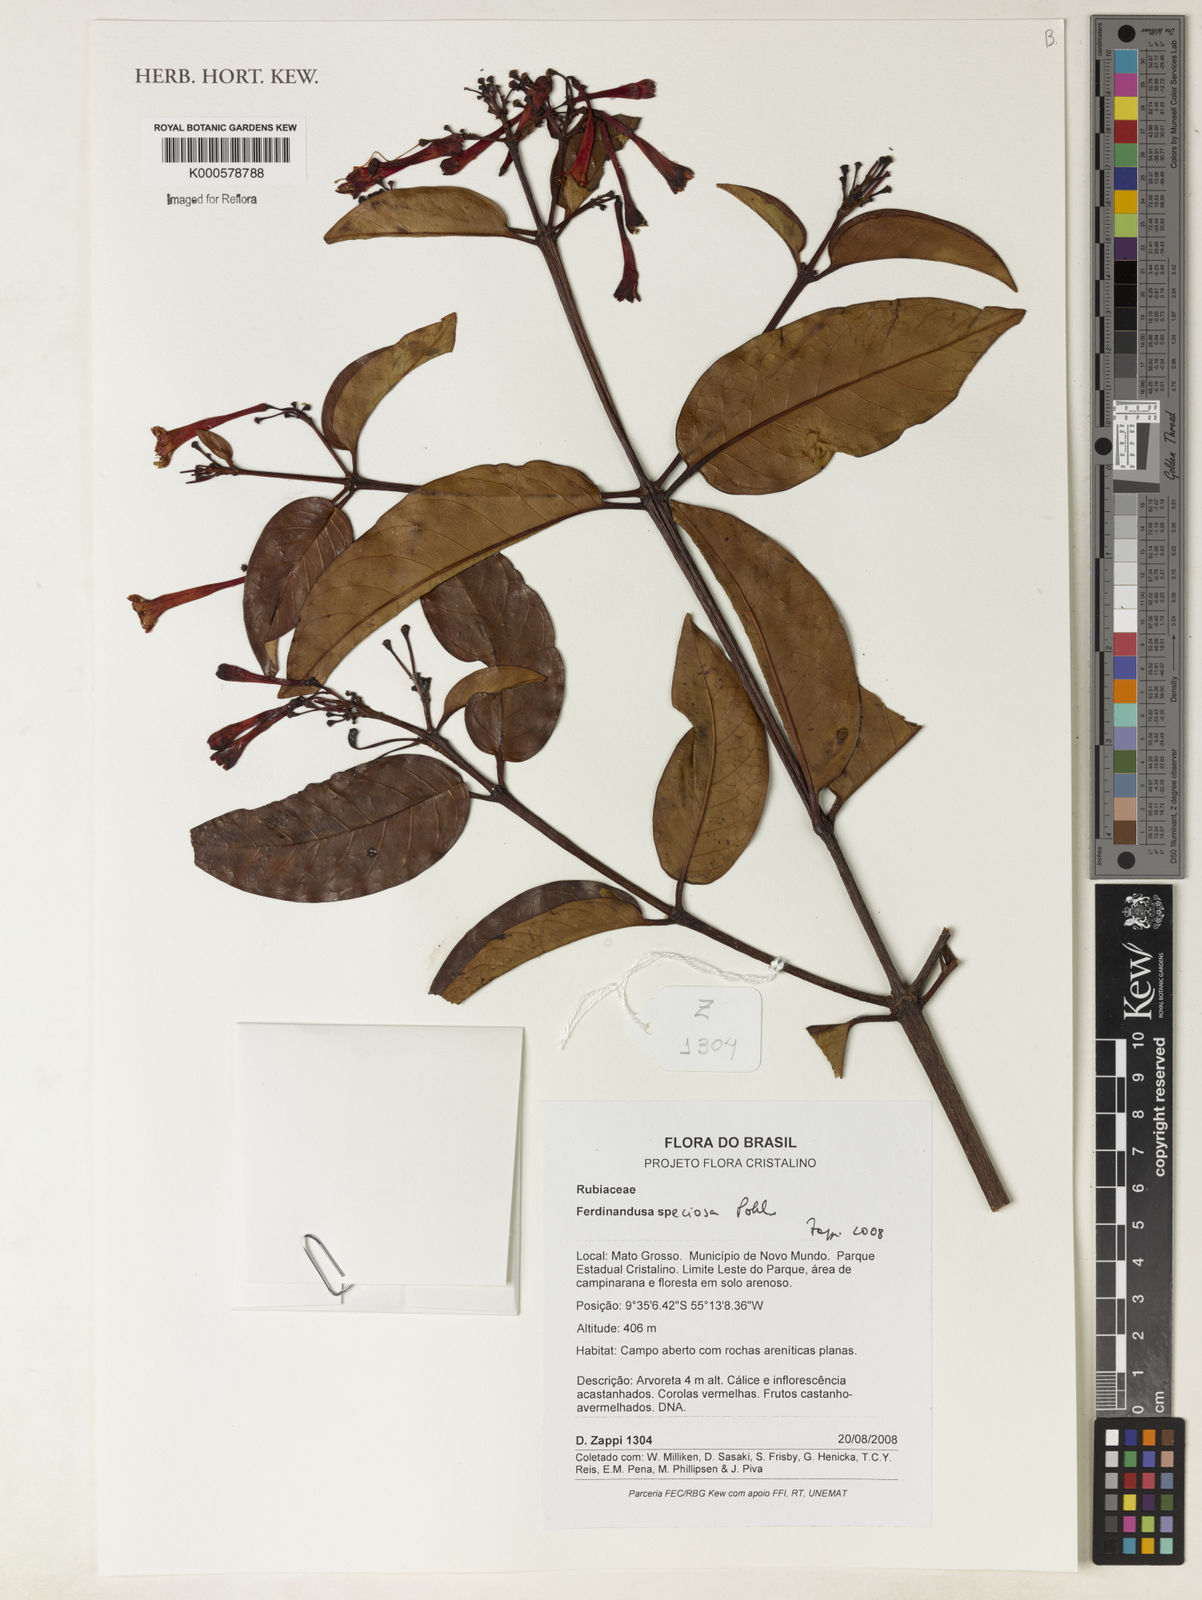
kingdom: Plantae
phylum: Tracheophyta
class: Magnoliopsida
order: Gentianales
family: Rubiaceae
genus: Ferdinandusa
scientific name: Ferdinandusa speciosa
